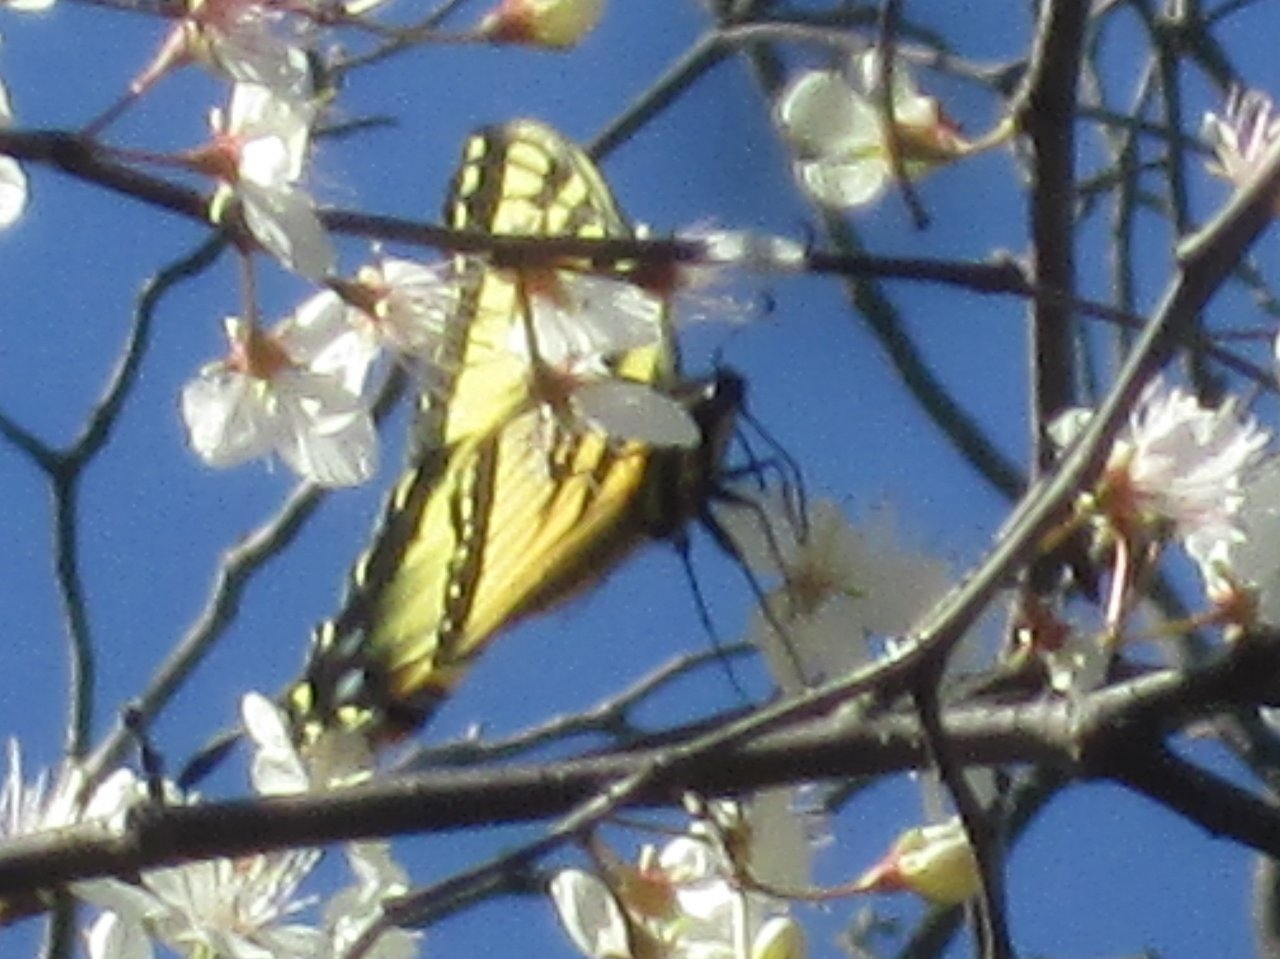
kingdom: Animalia
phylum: Arthropoda
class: Insecta
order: Lepidoptera
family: Papilionidae
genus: Pterourus
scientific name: Pterourus glaucus
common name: Eastern Tiger Swallowtail
